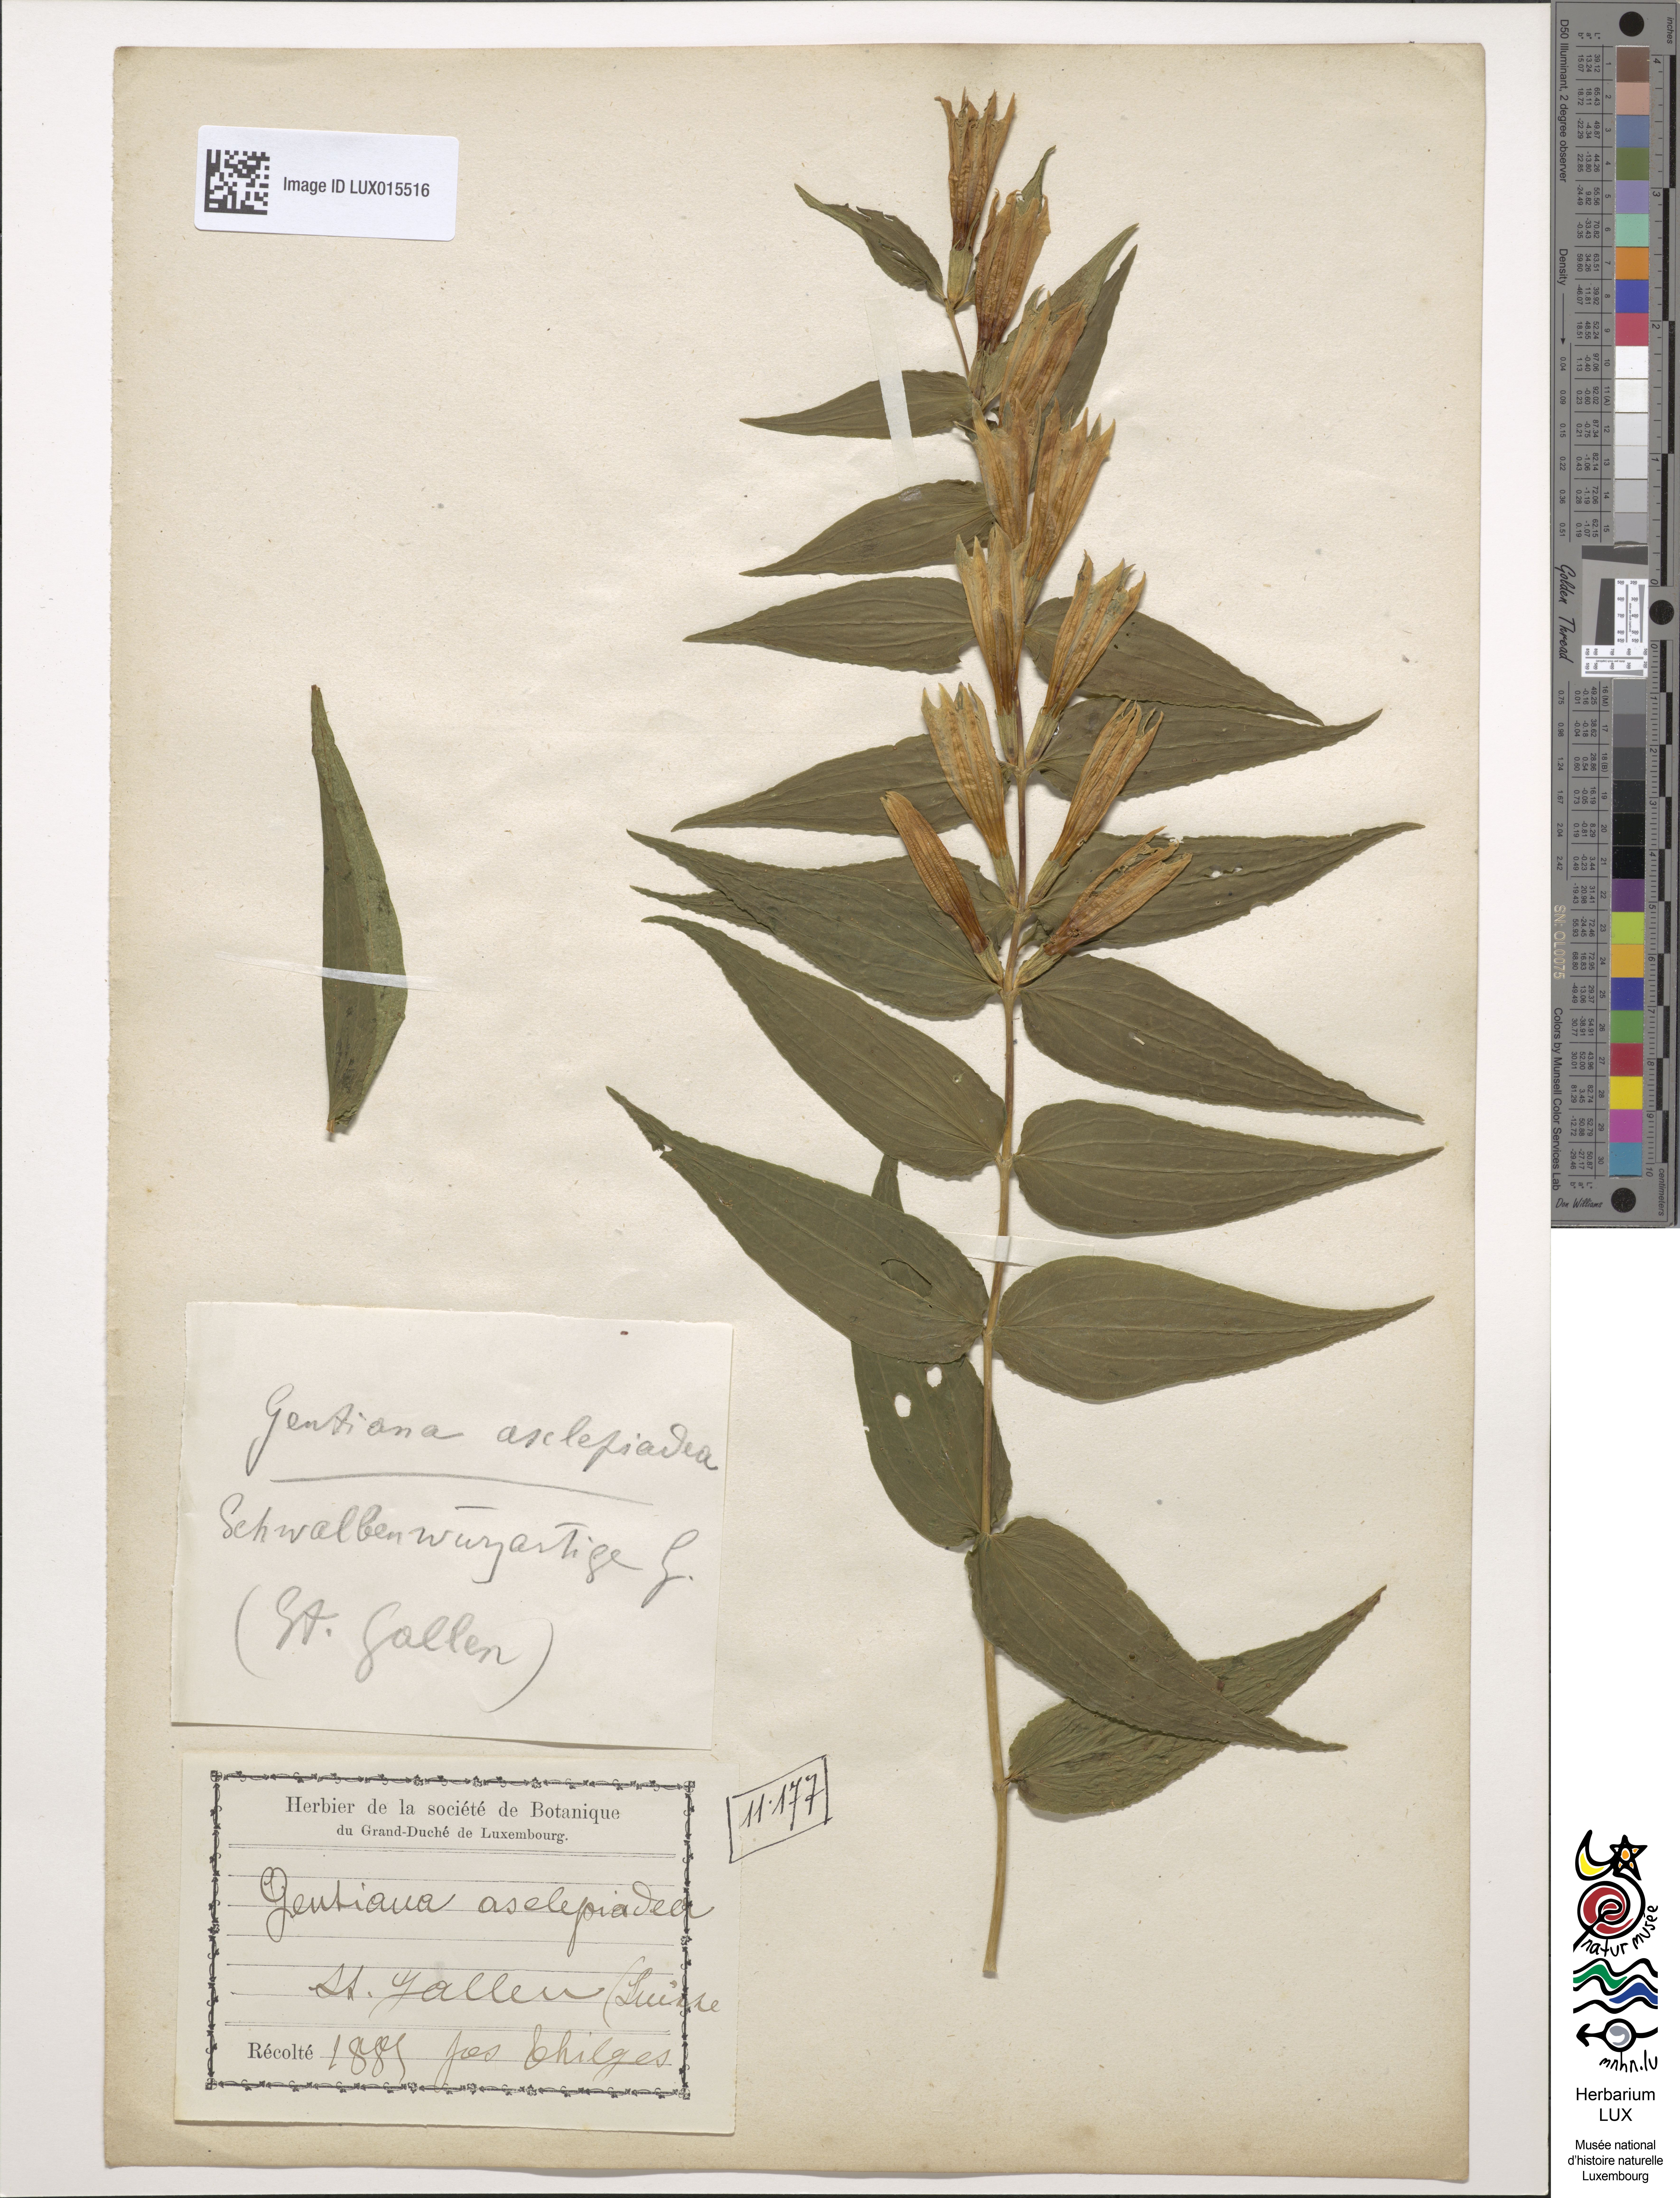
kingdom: Plantae
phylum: Tracheophyta
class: Magnoliopsida
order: Gentianales
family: Gentianaceae
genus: Gentiana
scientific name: Gentiana asclepiadea
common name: Willow gentian
